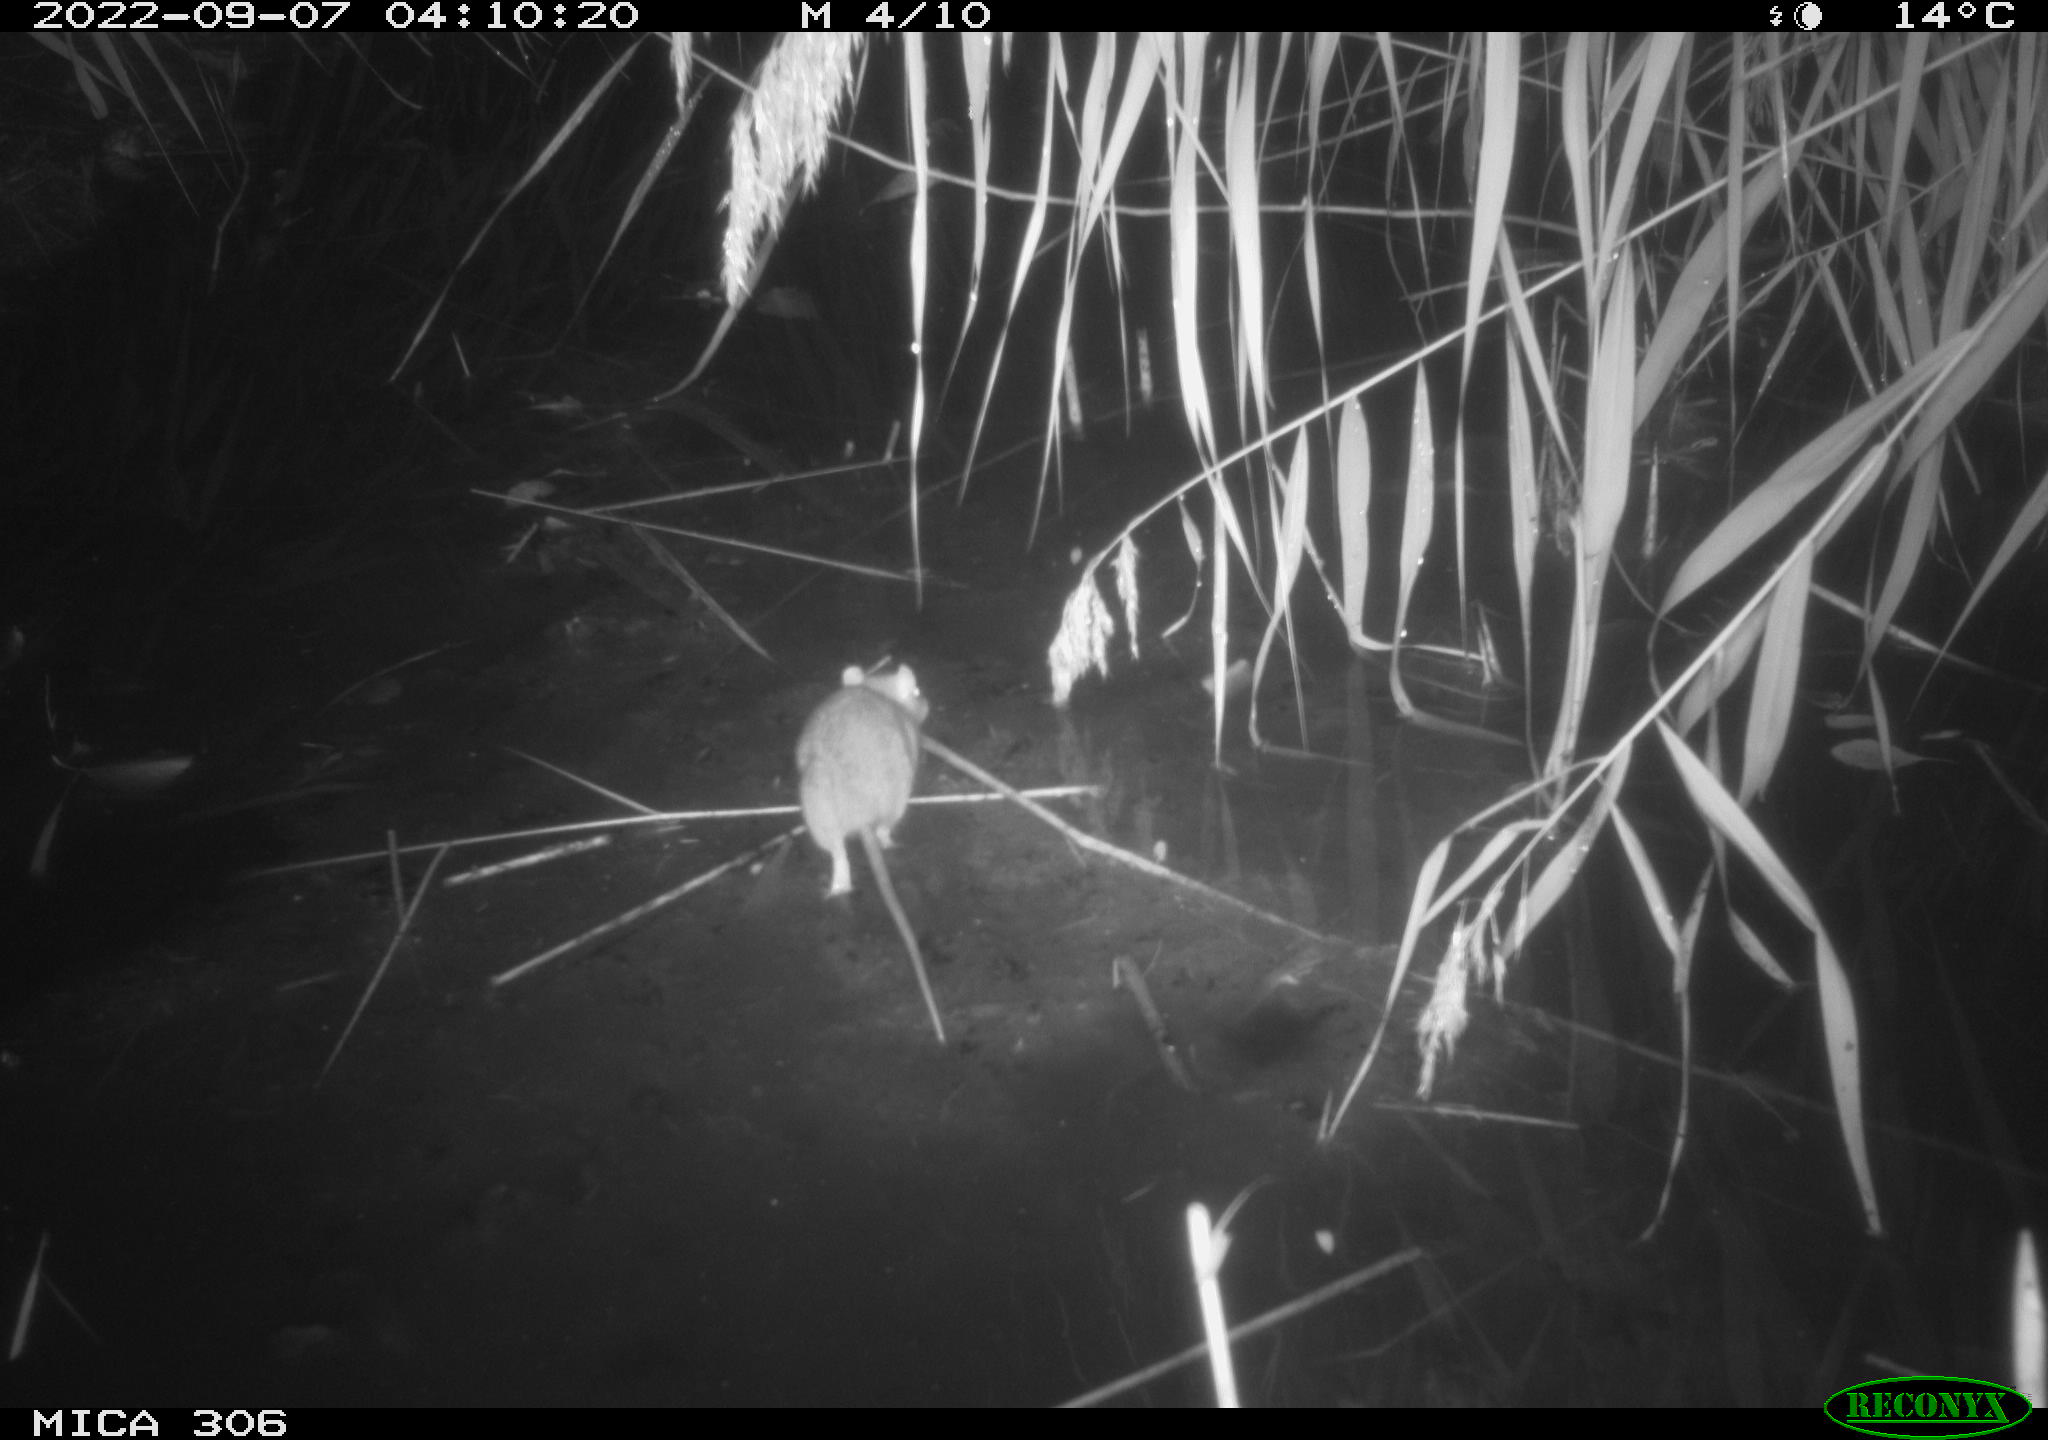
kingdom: Animalia
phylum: Chordata
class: Mammalia
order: Rodentia
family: Muridae
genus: Rattus
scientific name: Rattus norvegicus
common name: Brown rat
